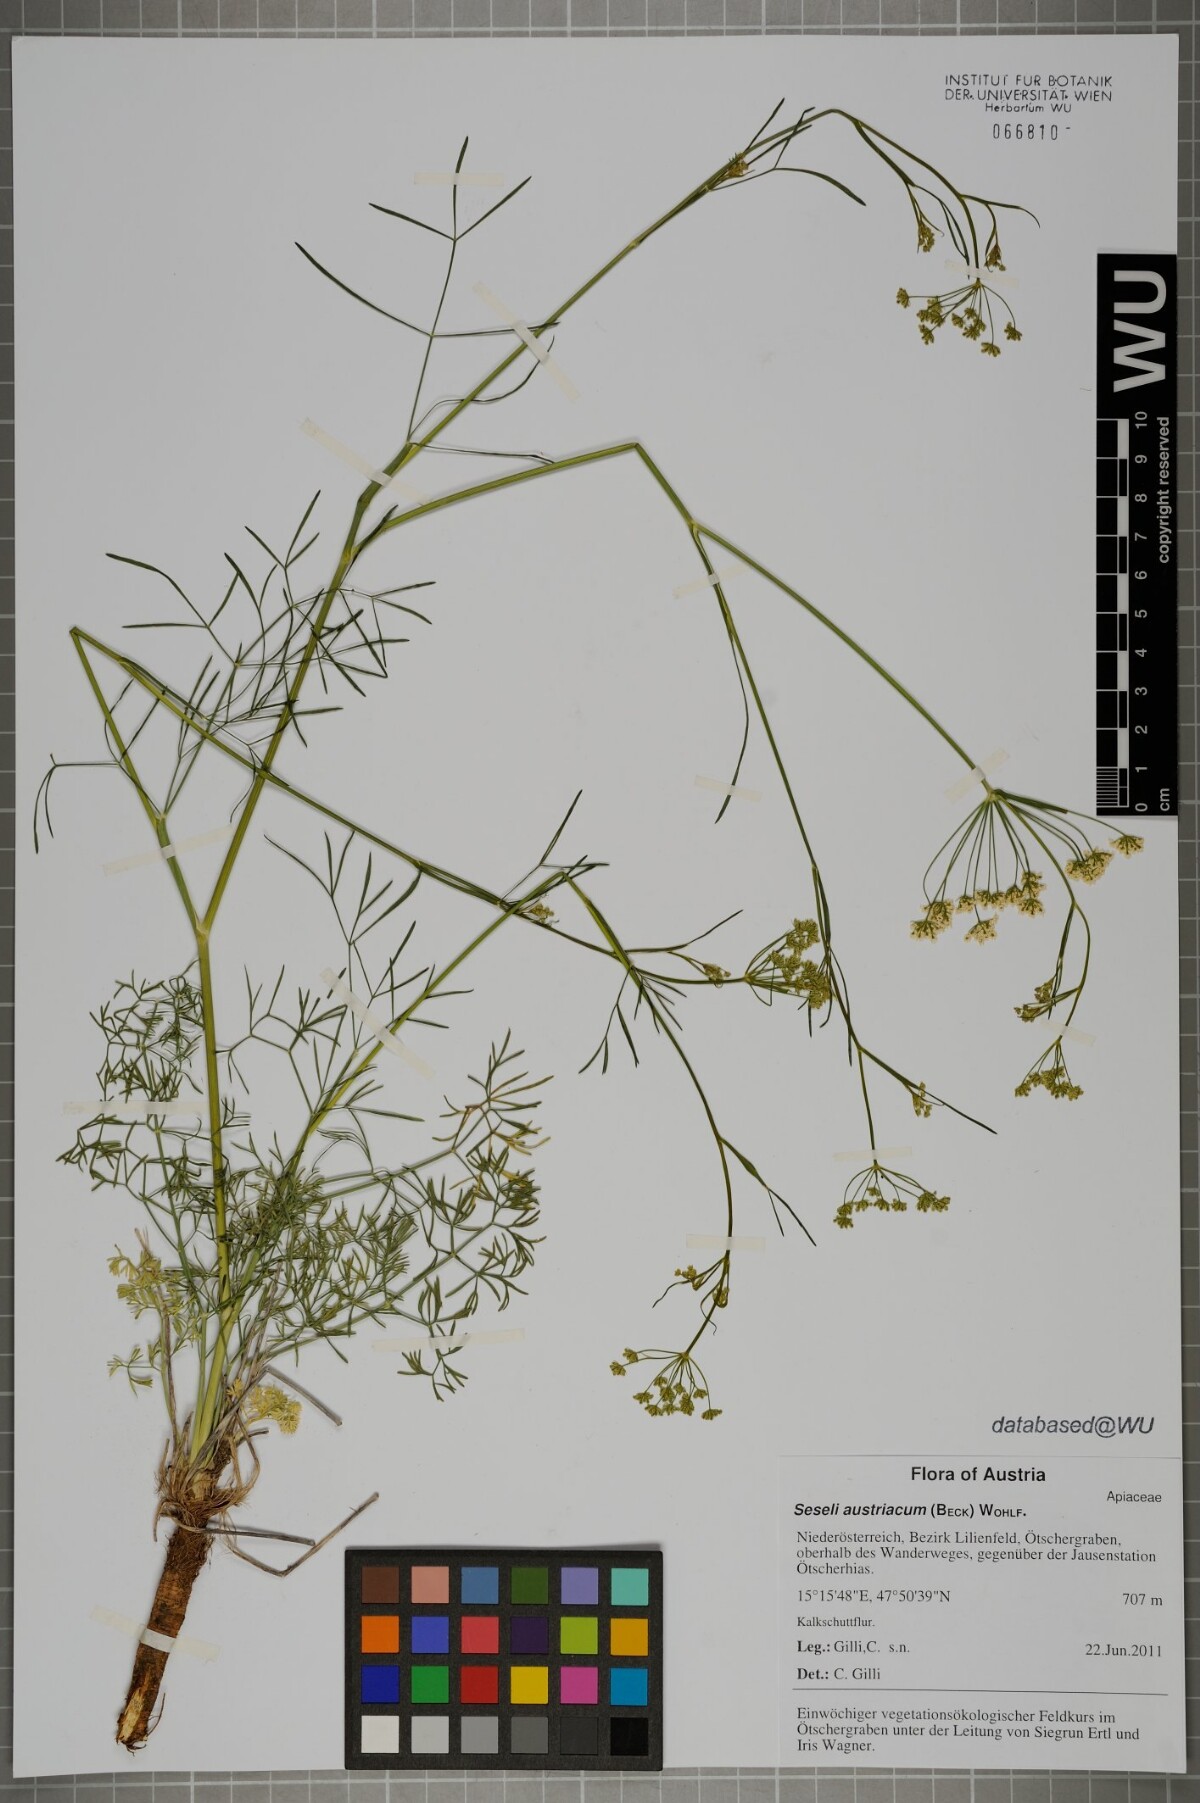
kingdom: Plantae
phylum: Tracheophyta
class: Magnoliopsida
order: Apiales
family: Apiaceae
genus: Seseli
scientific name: Seseli austriacum
